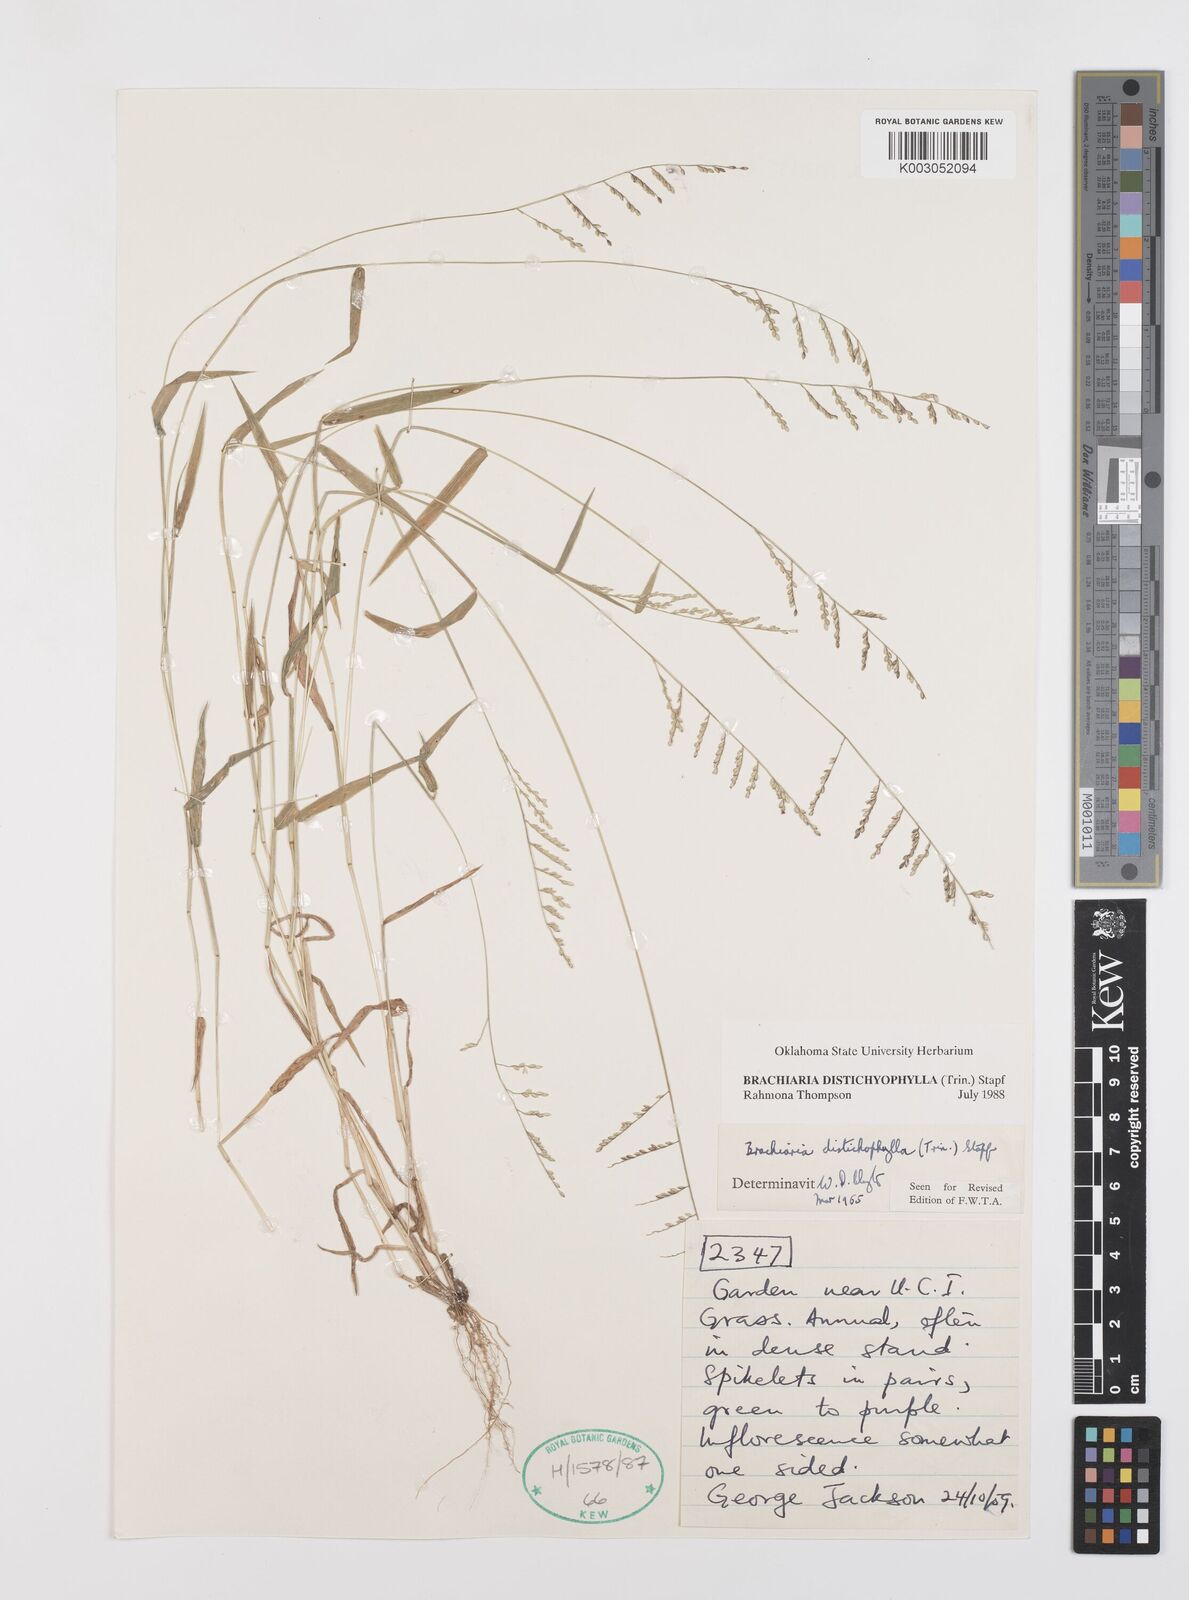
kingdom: Plantae
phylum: Tracheophyta
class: Liliopsida
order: Poales
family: Poaceae
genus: Urochloa
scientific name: Urochloa villosa
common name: Hairy signalgrass
